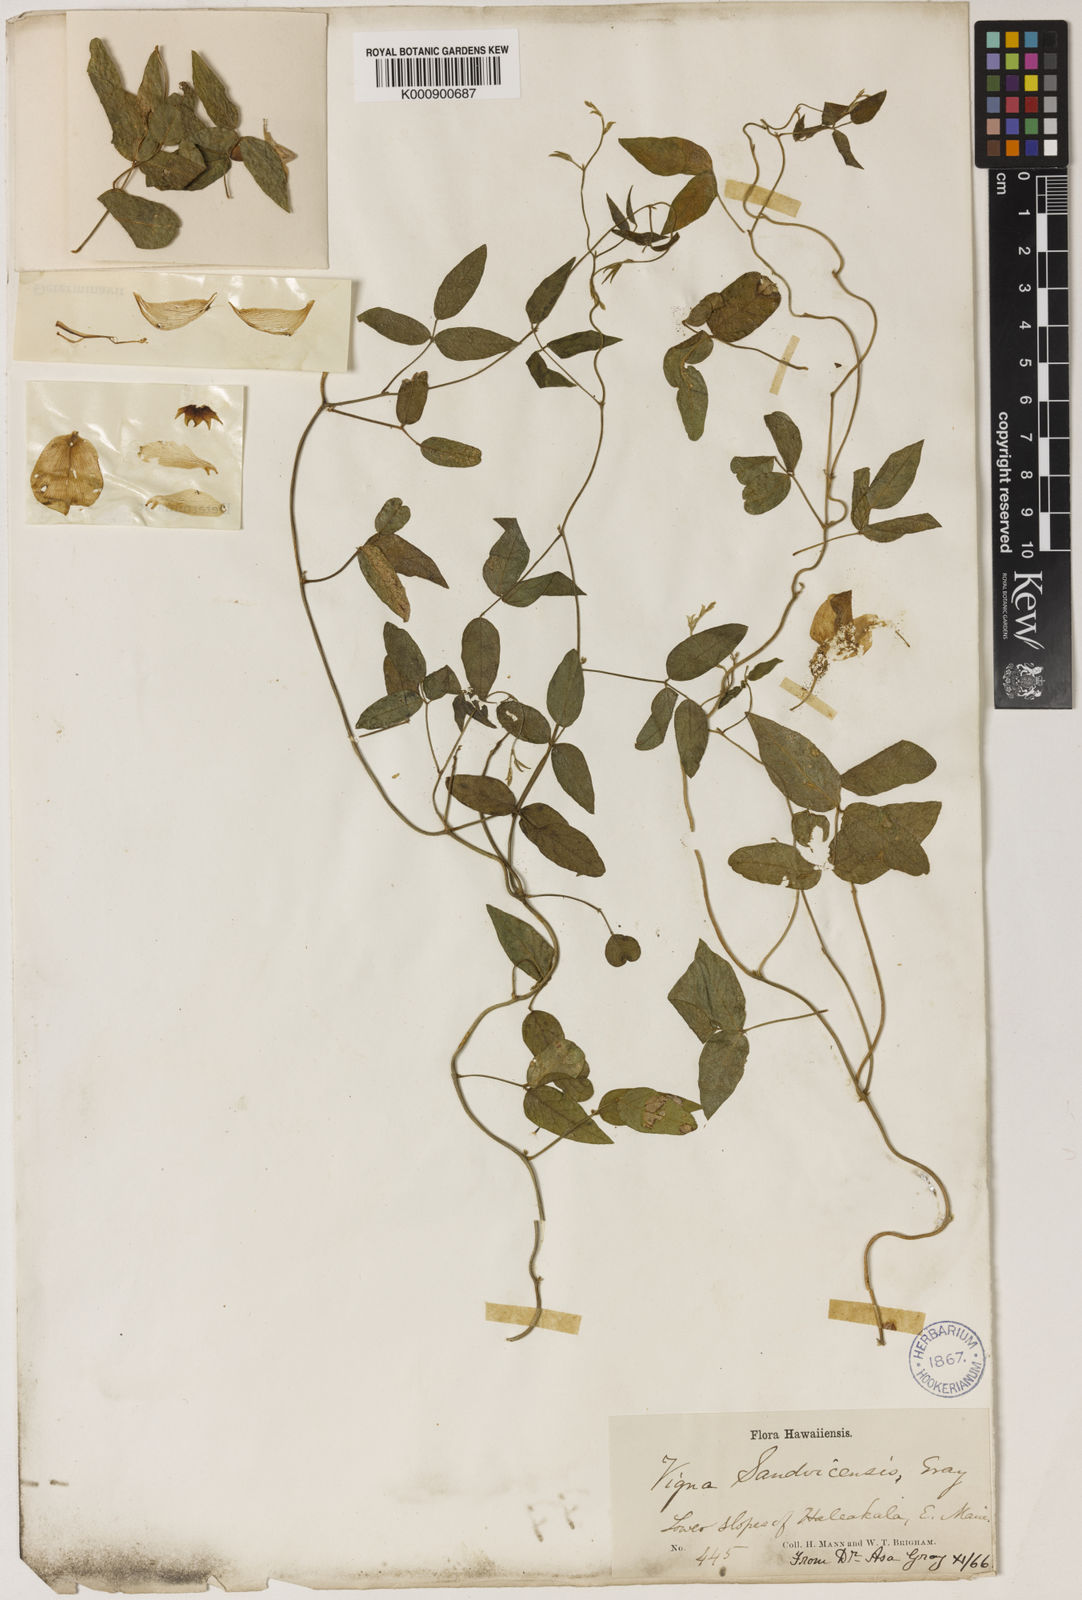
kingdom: Plantae
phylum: Tracheophyta
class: Magnoliopsida
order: Fabales
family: Fabaceae
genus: Vigna
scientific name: Vigna
